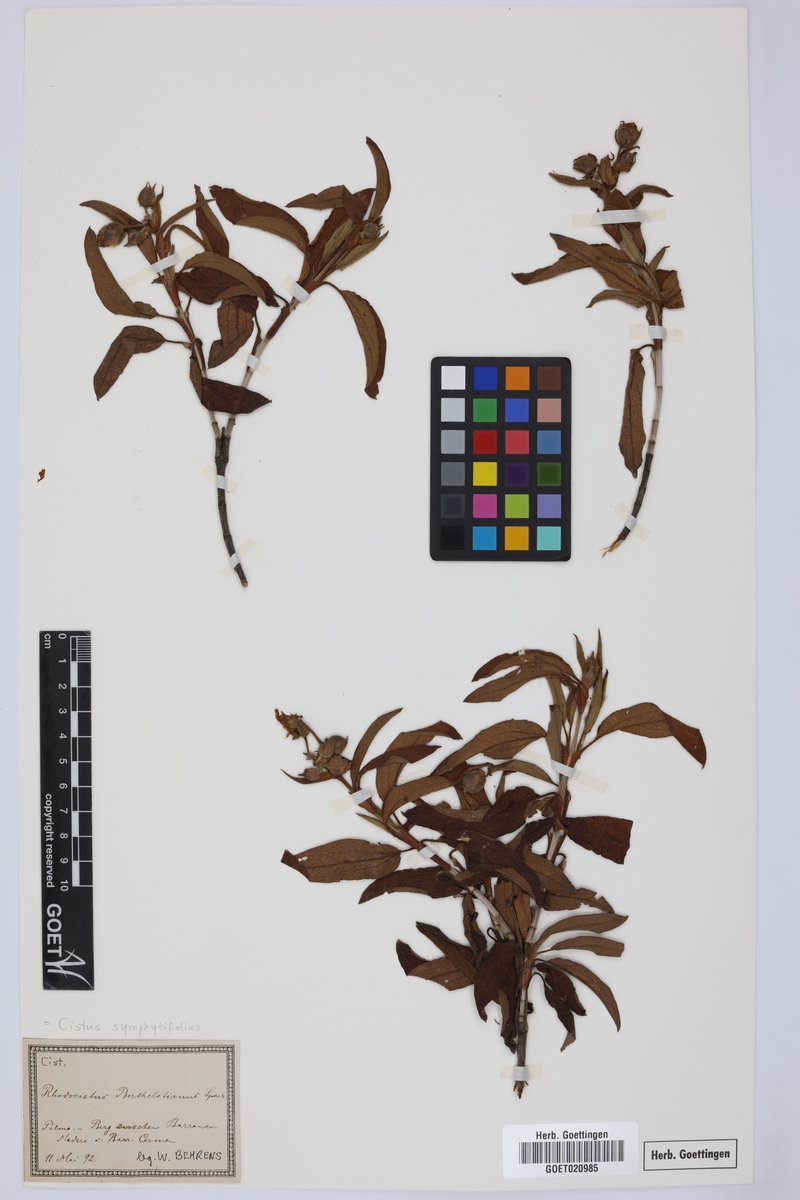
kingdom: Plantae
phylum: Tracheophyta
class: Magnoliopsida
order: Malvales
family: Cistaceae
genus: Cistus
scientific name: Cistus symphytifolius
